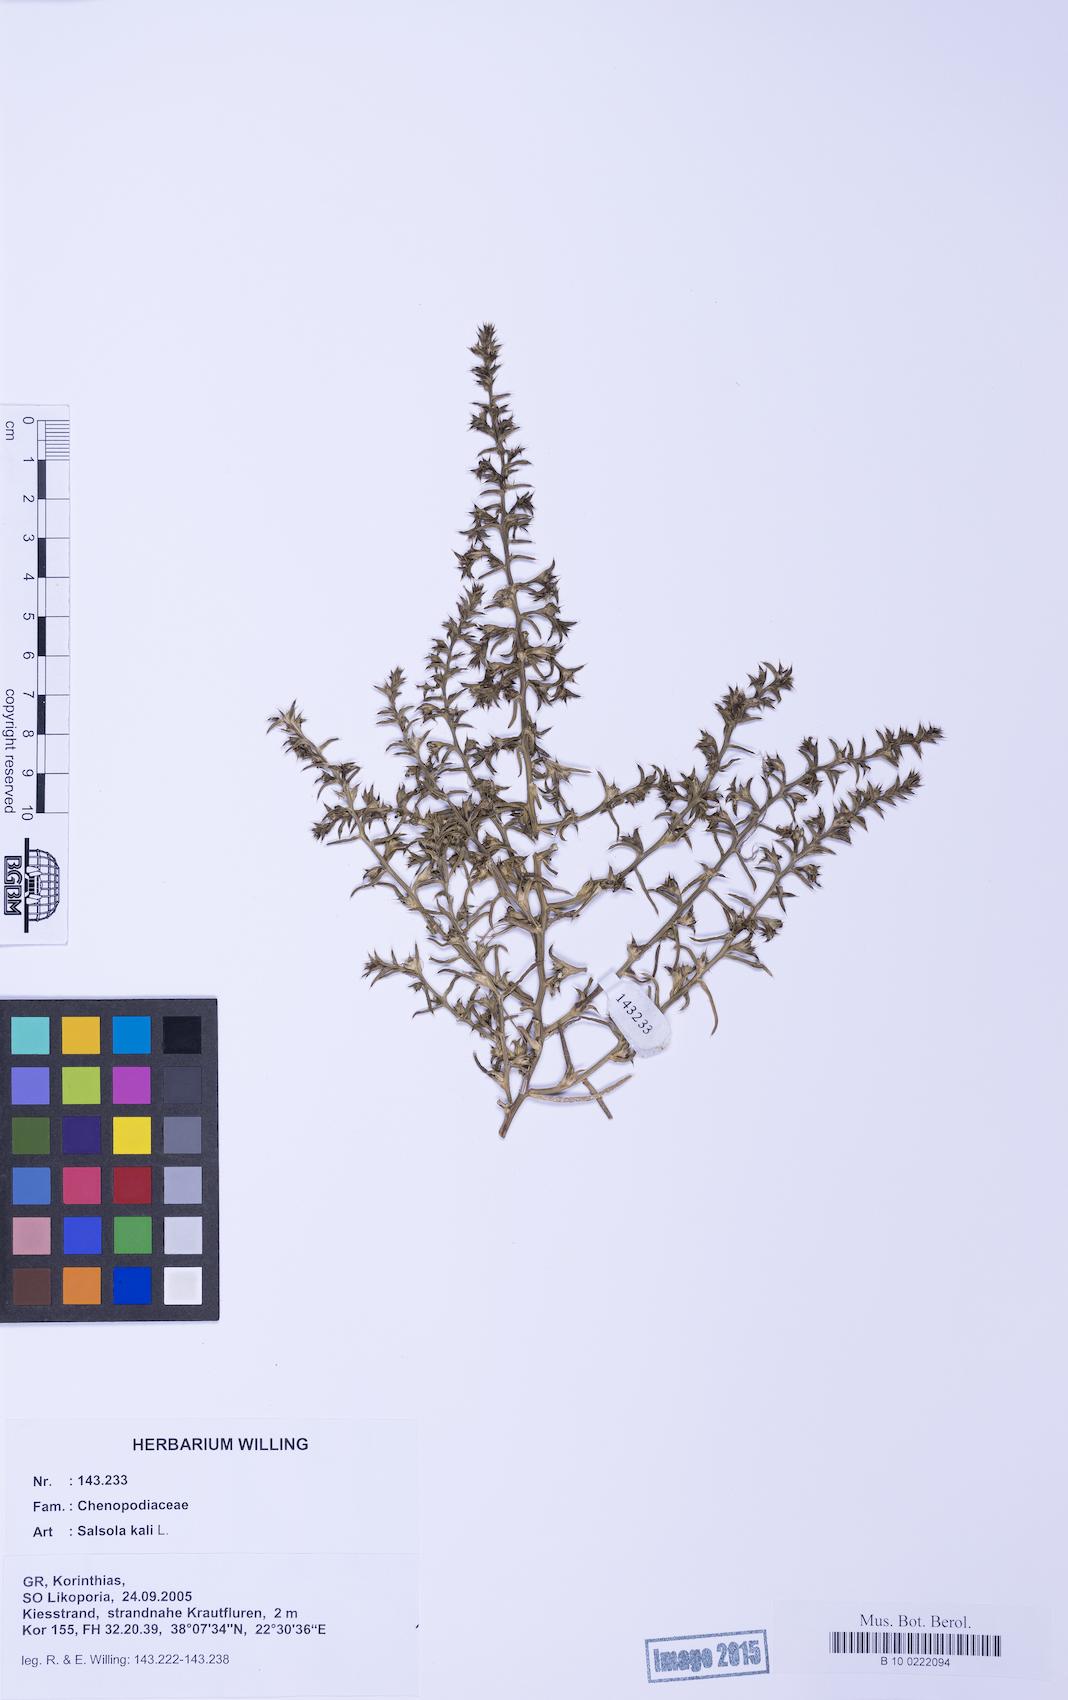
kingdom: Plantae
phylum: Tracheophyta
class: Magnoliopsida
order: Caryophyllales
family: Amaranthaceae
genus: Salsola
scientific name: Salsola kali
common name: Saltwort
